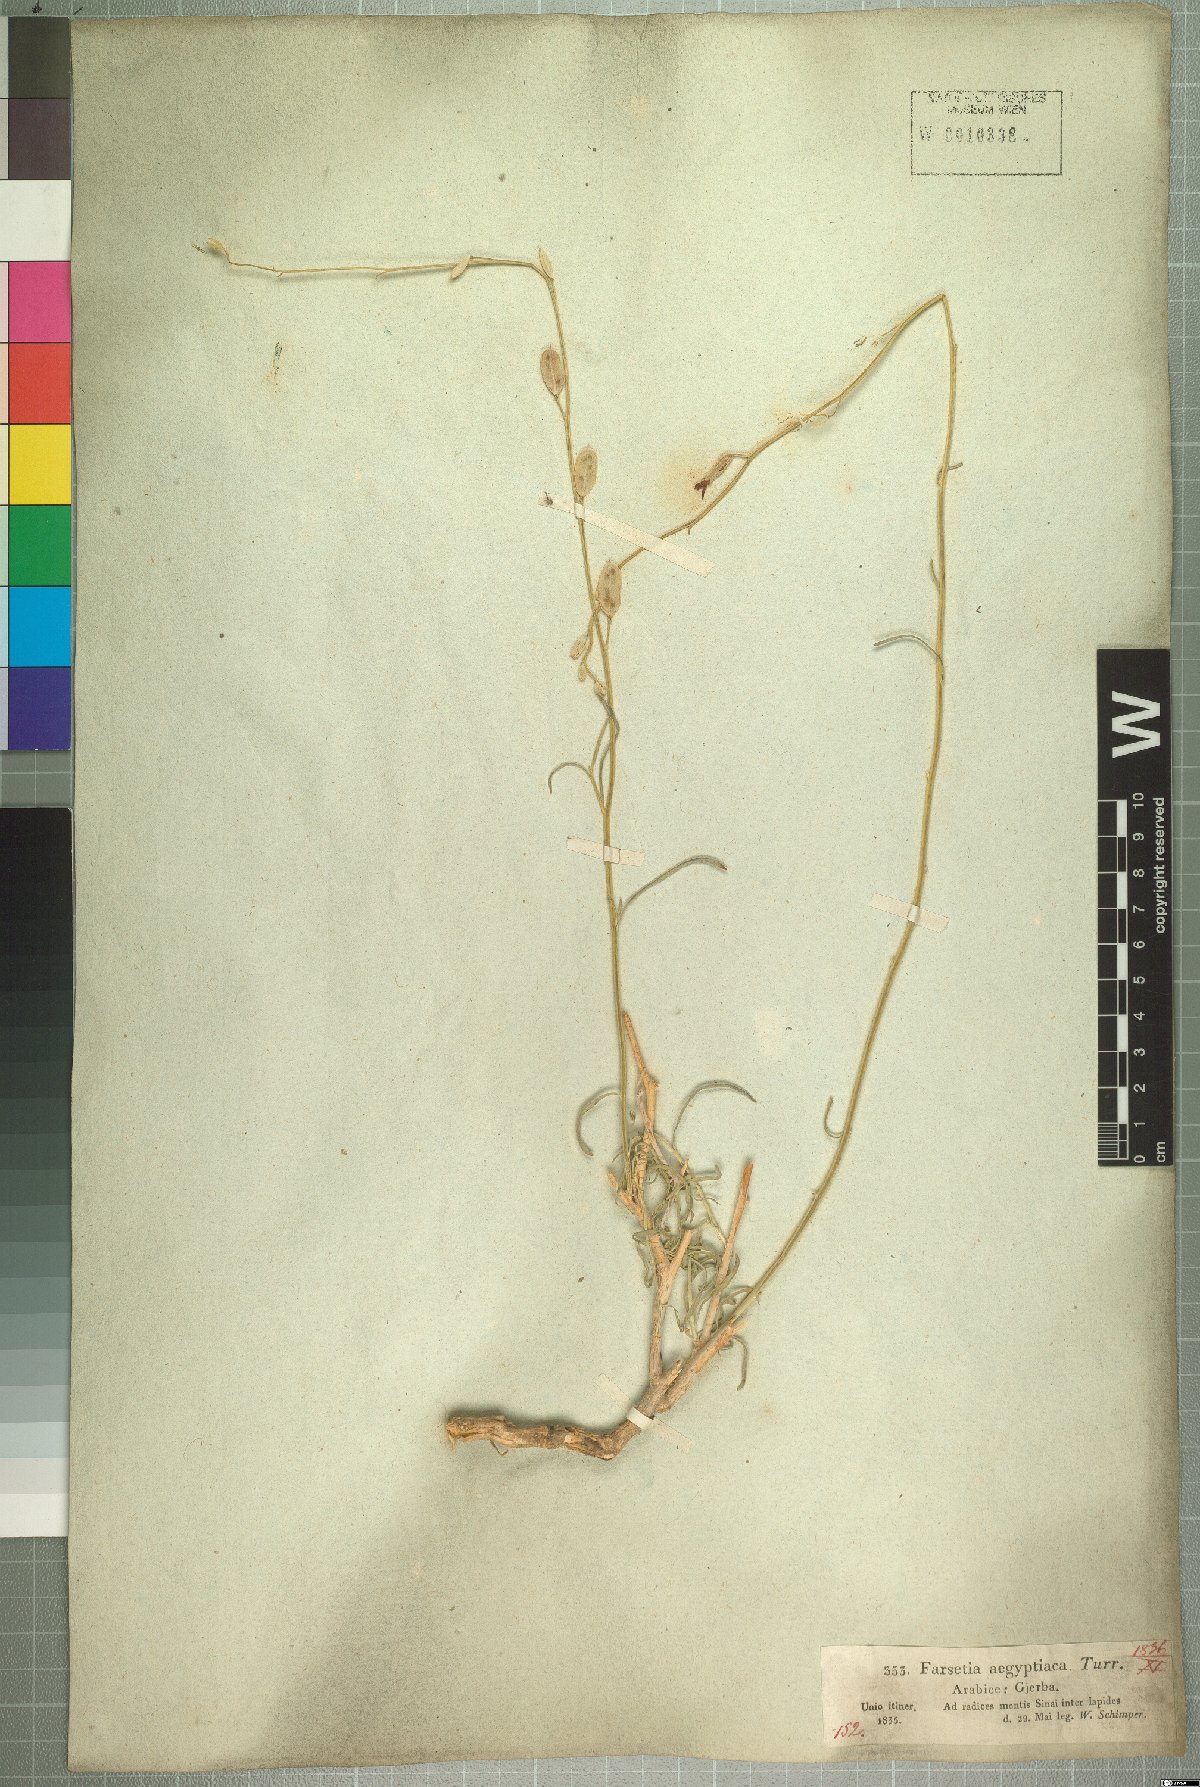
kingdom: Plantae
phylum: Tracheophyta
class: Magnoliopsida
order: Brassicales
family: Brassicaceae
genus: Farsetia
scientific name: Farsetia aegyptia
